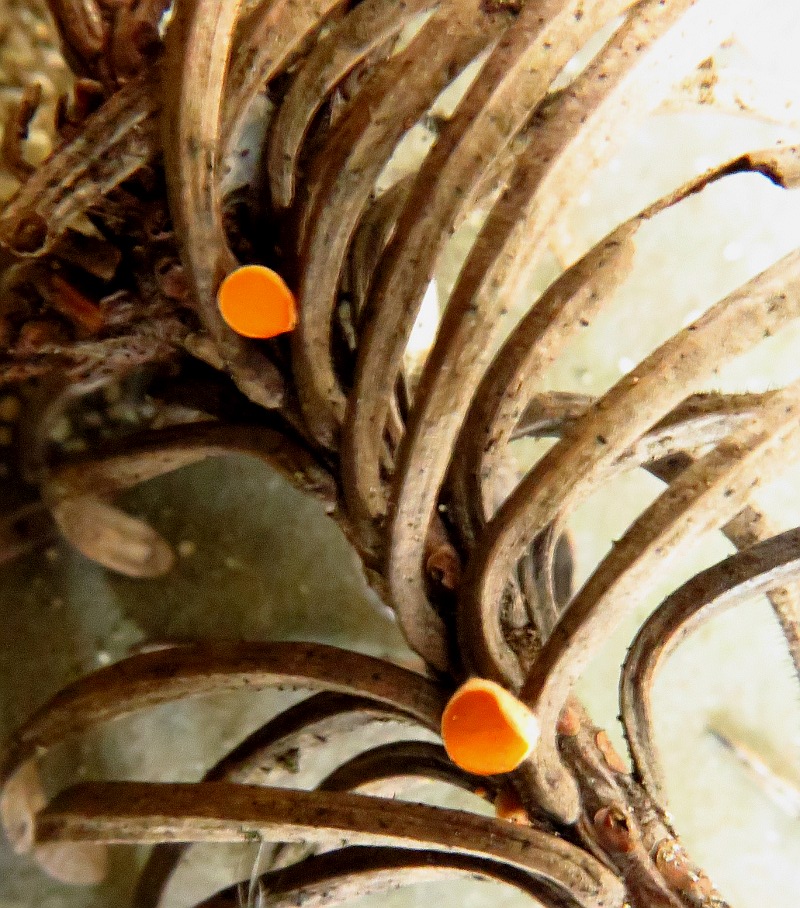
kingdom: Fungi
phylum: Ascomycota
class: Pezizomycetes
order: Pezizales
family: Sarcoscyphaceae
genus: Pithya
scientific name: Pithya vulgaris
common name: stor dukatbæger
